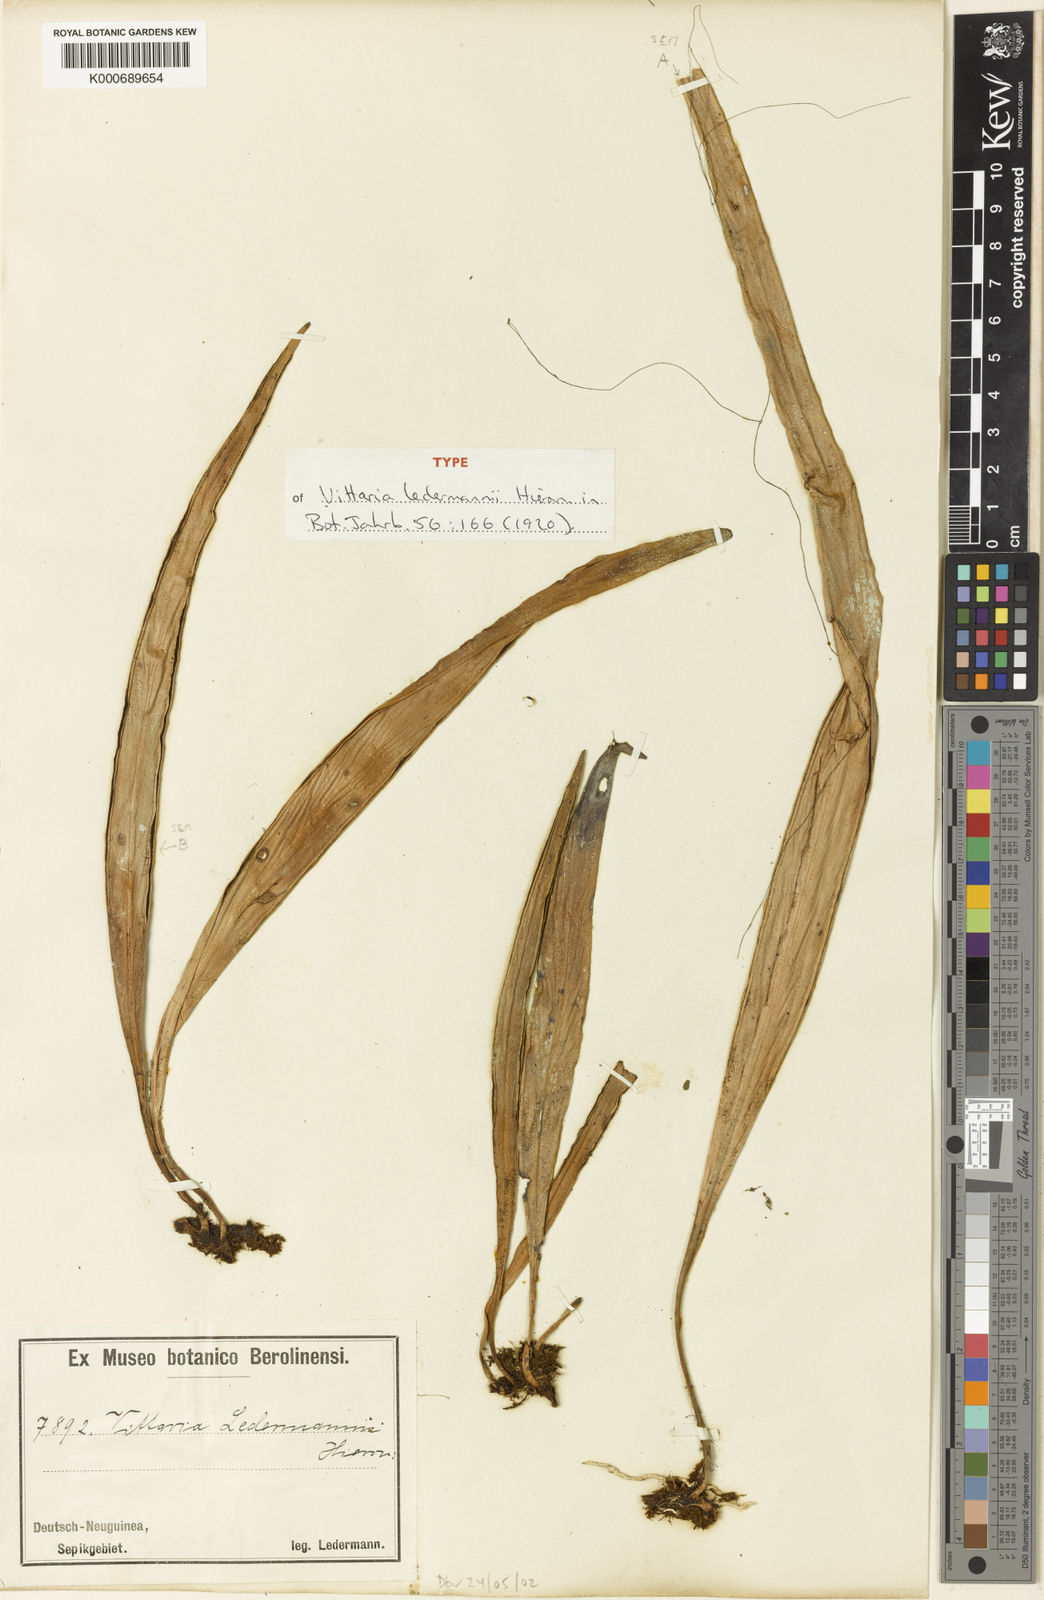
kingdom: Plantae
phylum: Tracheophyta
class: Polypodiopsida
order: Polypodiales
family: Pteridaceae
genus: Haplopteris
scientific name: Haplopteris zosterifolia
